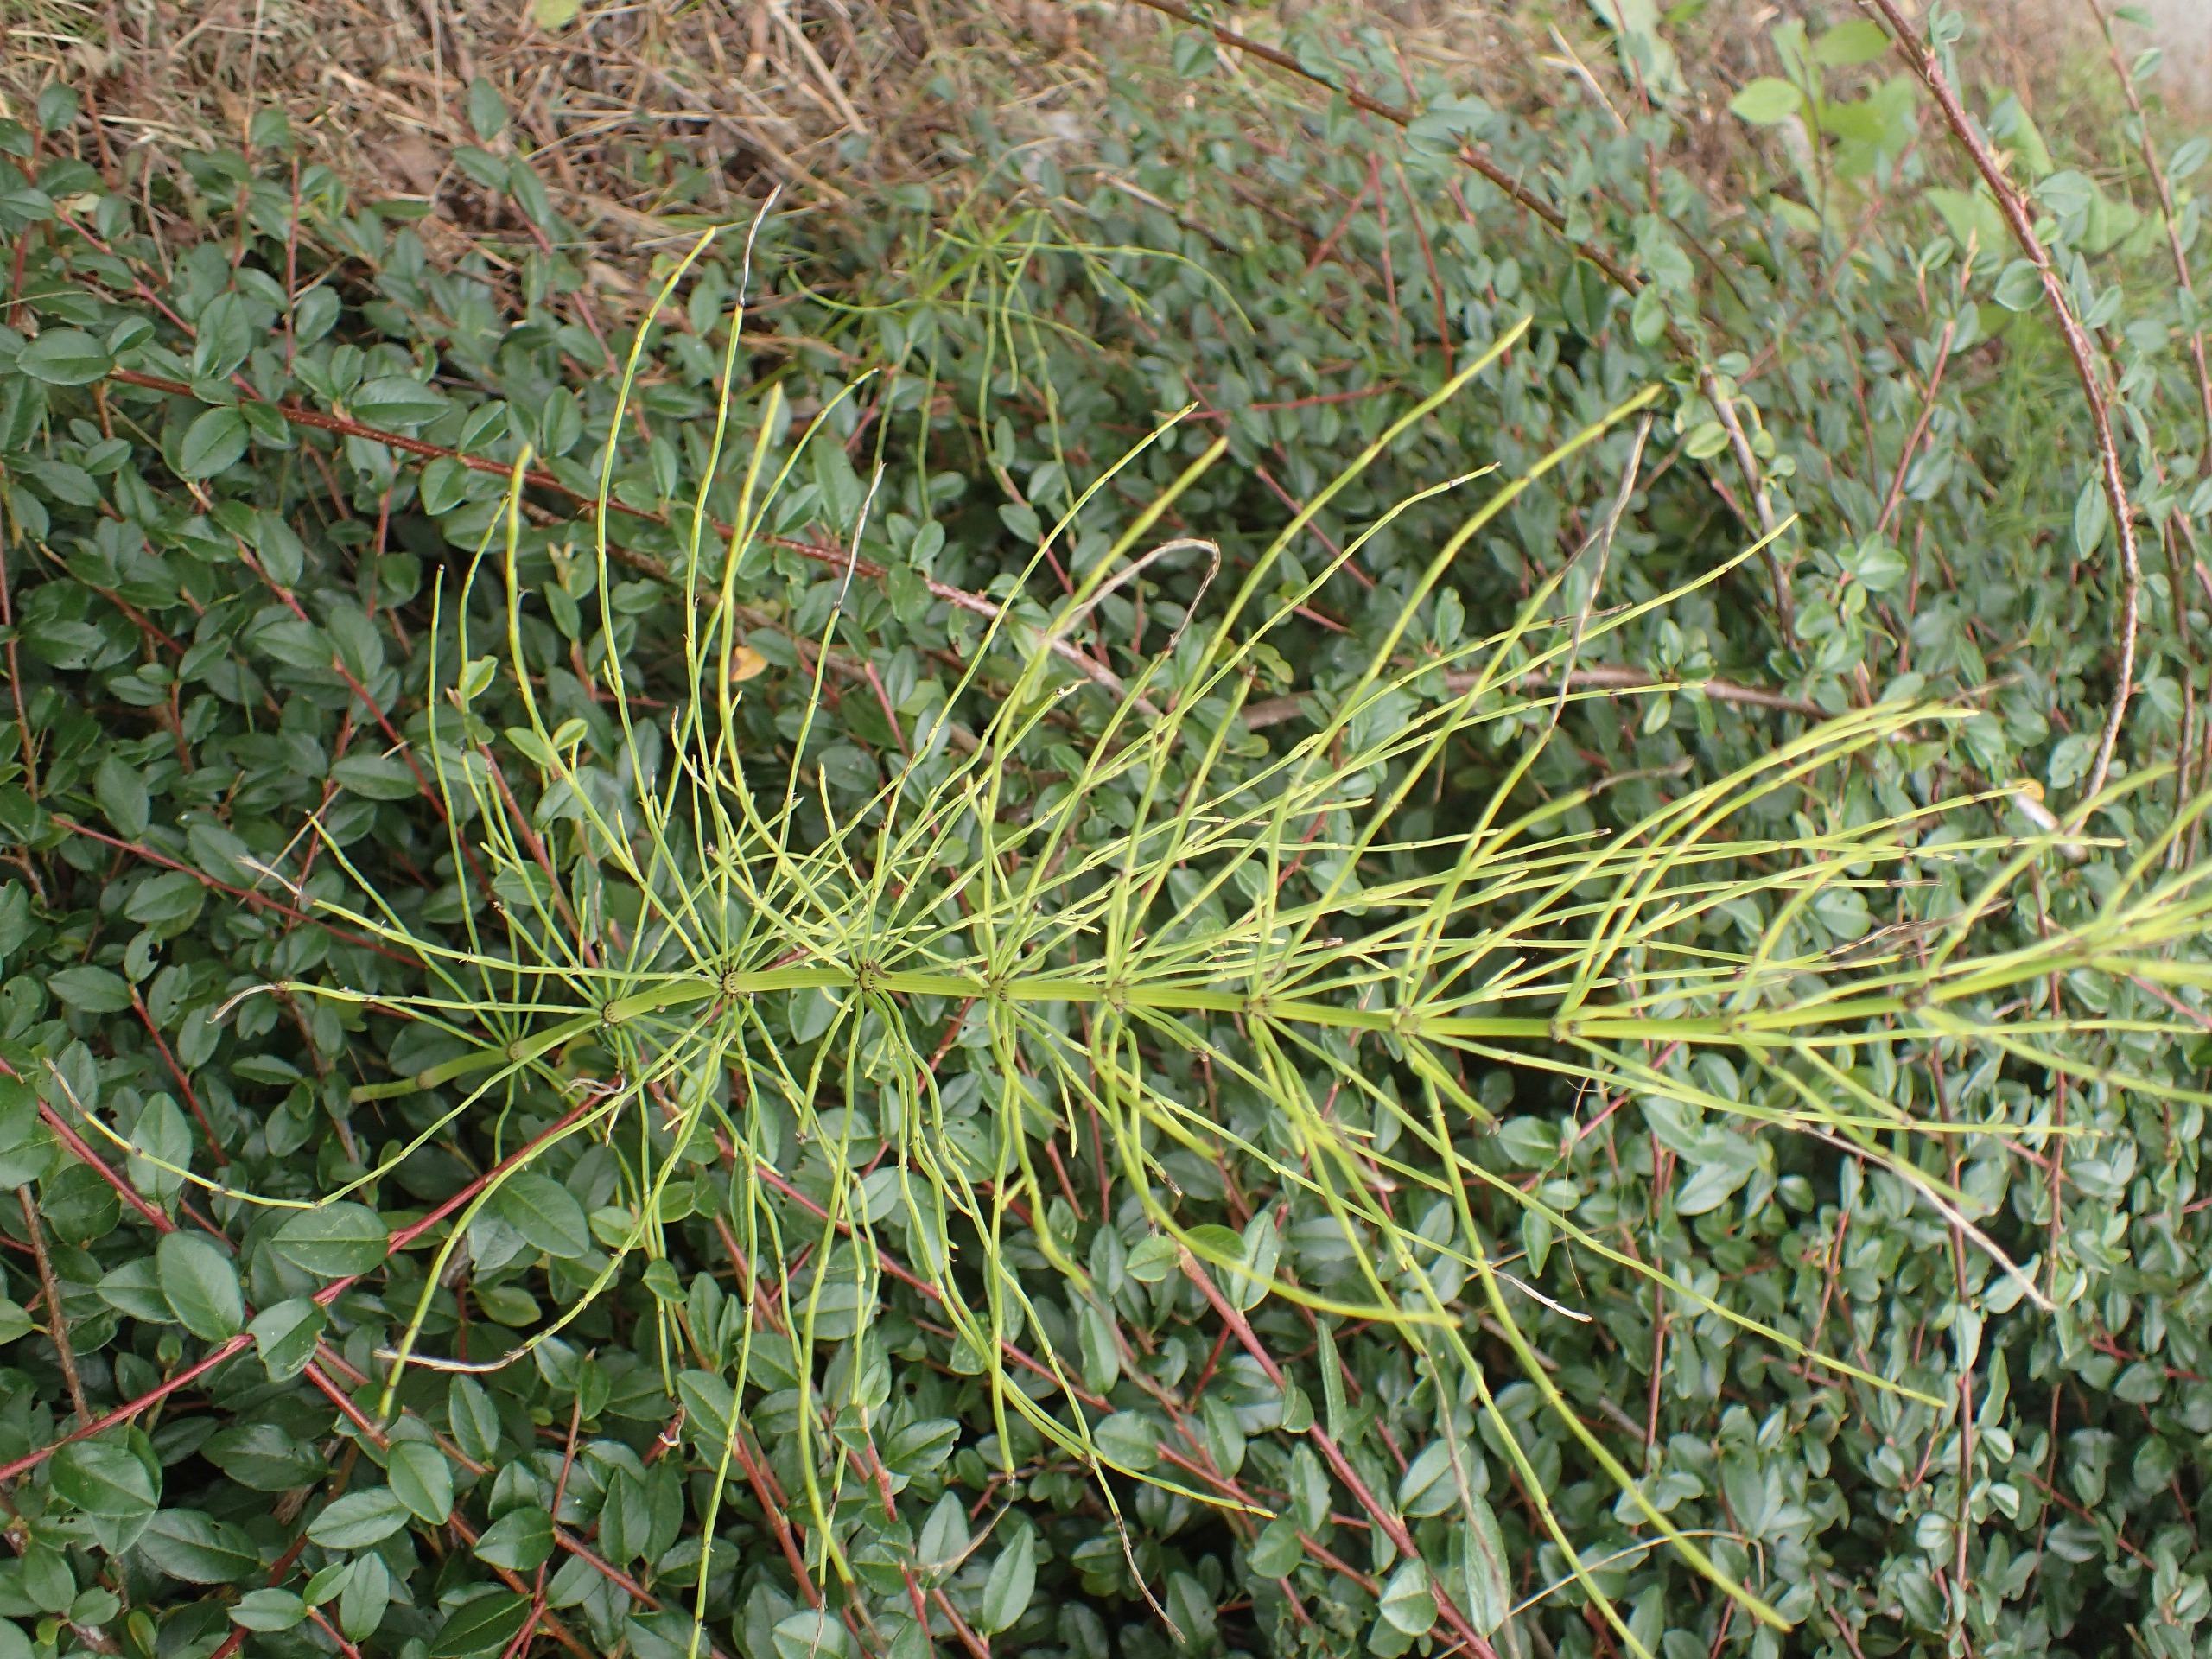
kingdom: Plantae
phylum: Tracheophyta
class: Polypodiopsida
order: Equisetales
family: Equisetaceae
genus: Equisetum
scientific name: Equisetum arvense
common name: Ager-padderok
